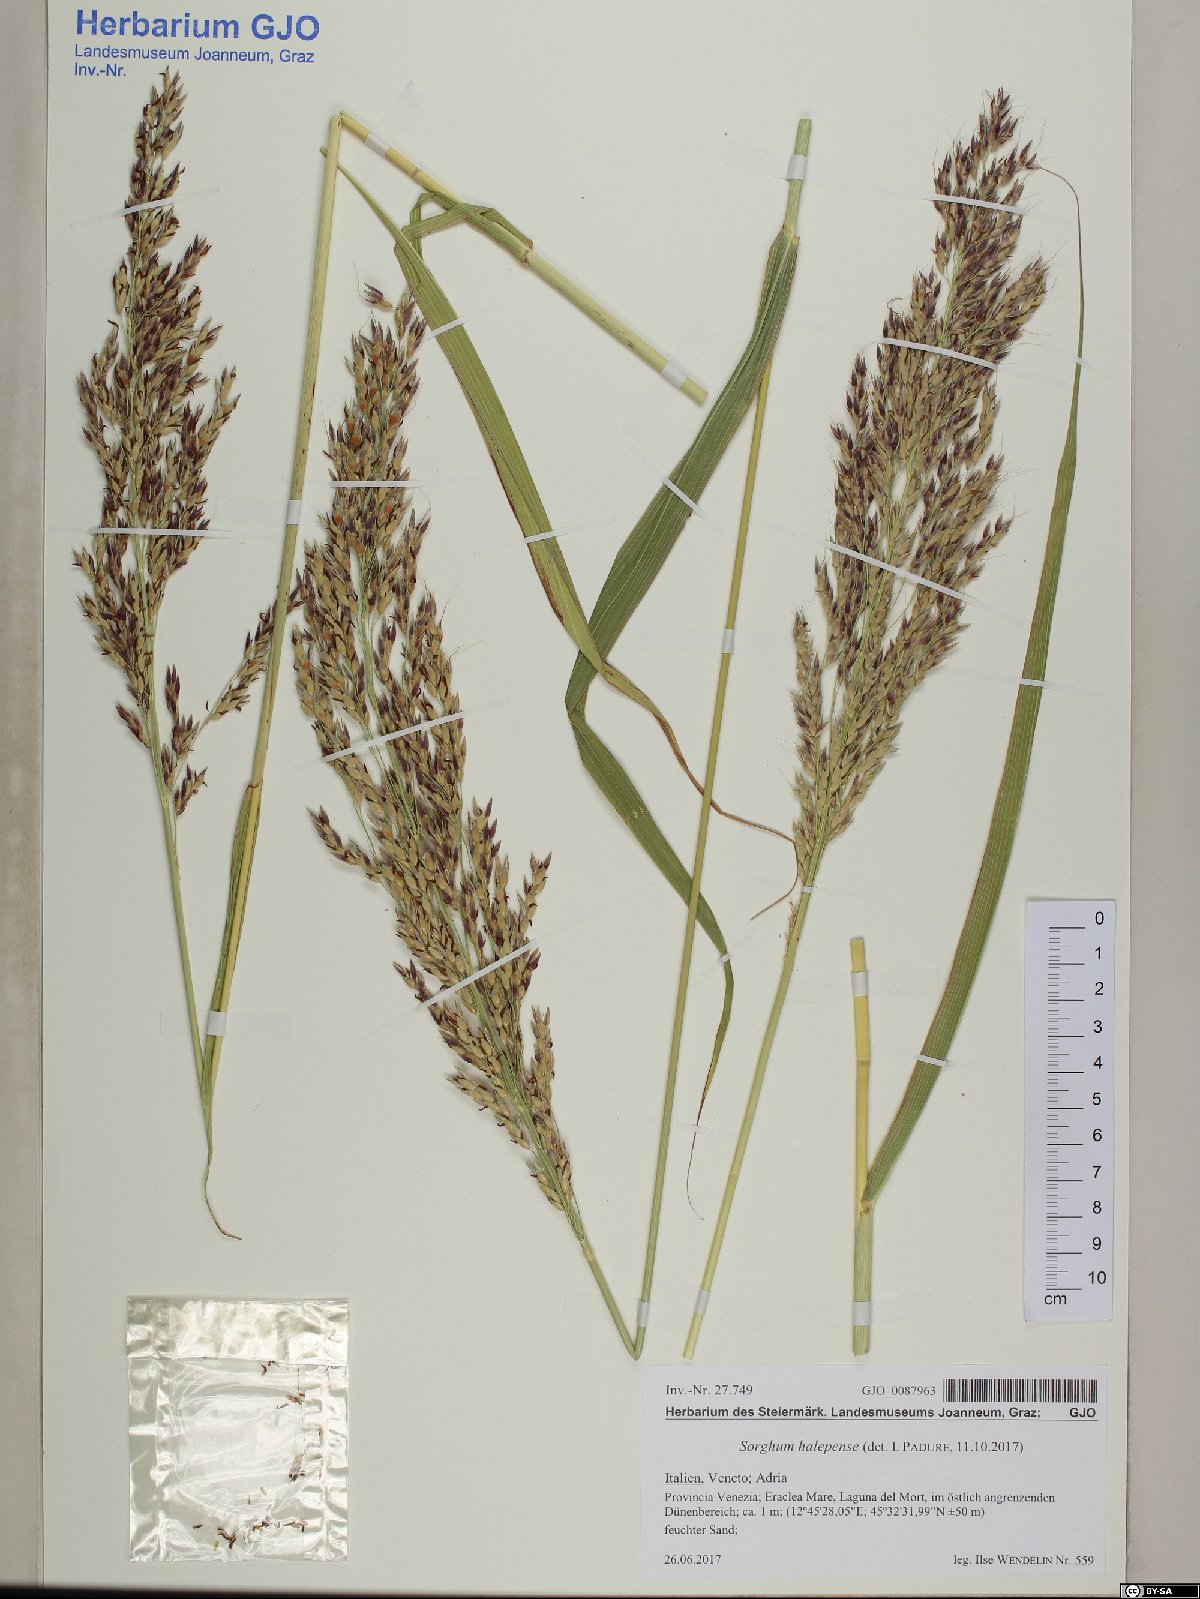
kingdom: Plantae
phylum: Tracheophyta
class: Liliopsida
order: Poales
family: Poaceae
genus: Sorghum
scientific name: Sorghum halepense
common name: Johnson-grass
